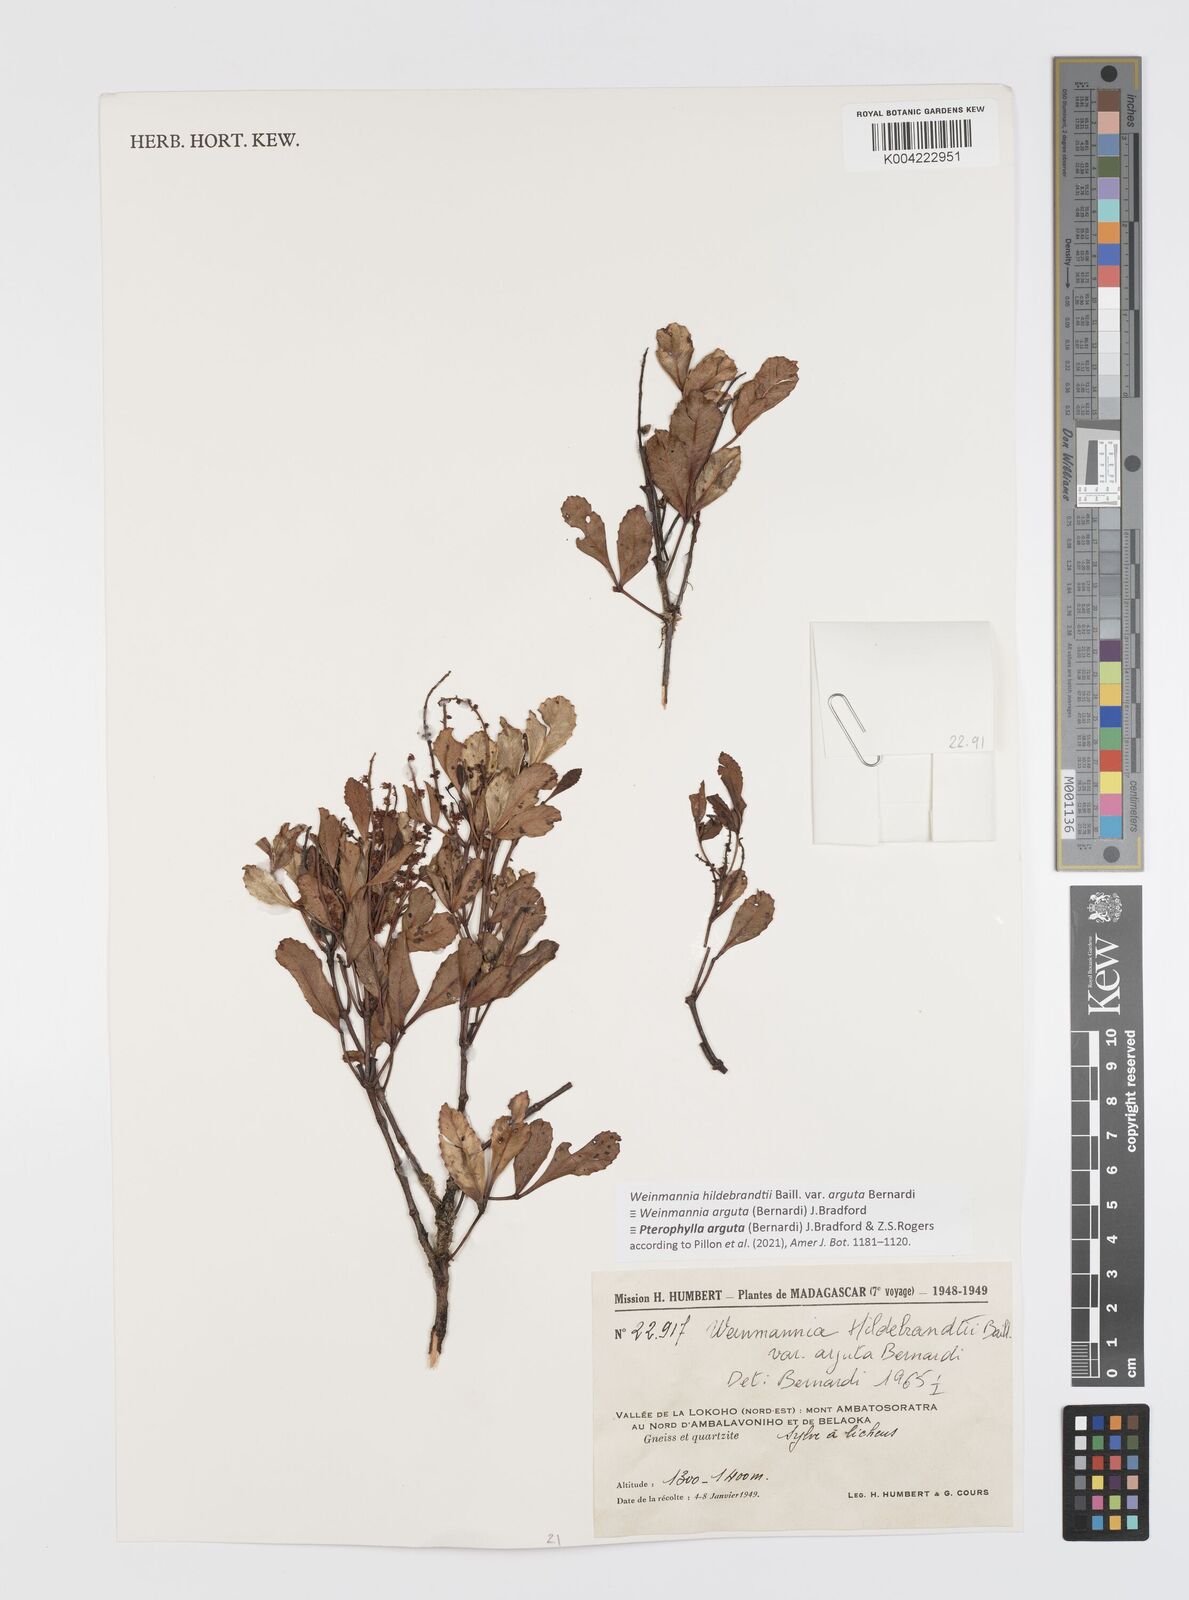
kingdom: Plantae
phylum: Tracheophyta
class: Magnoliopsida
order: Oxalidales
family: Cunoniaceae
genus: Pterophylla
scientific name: Pterophylla arguta
